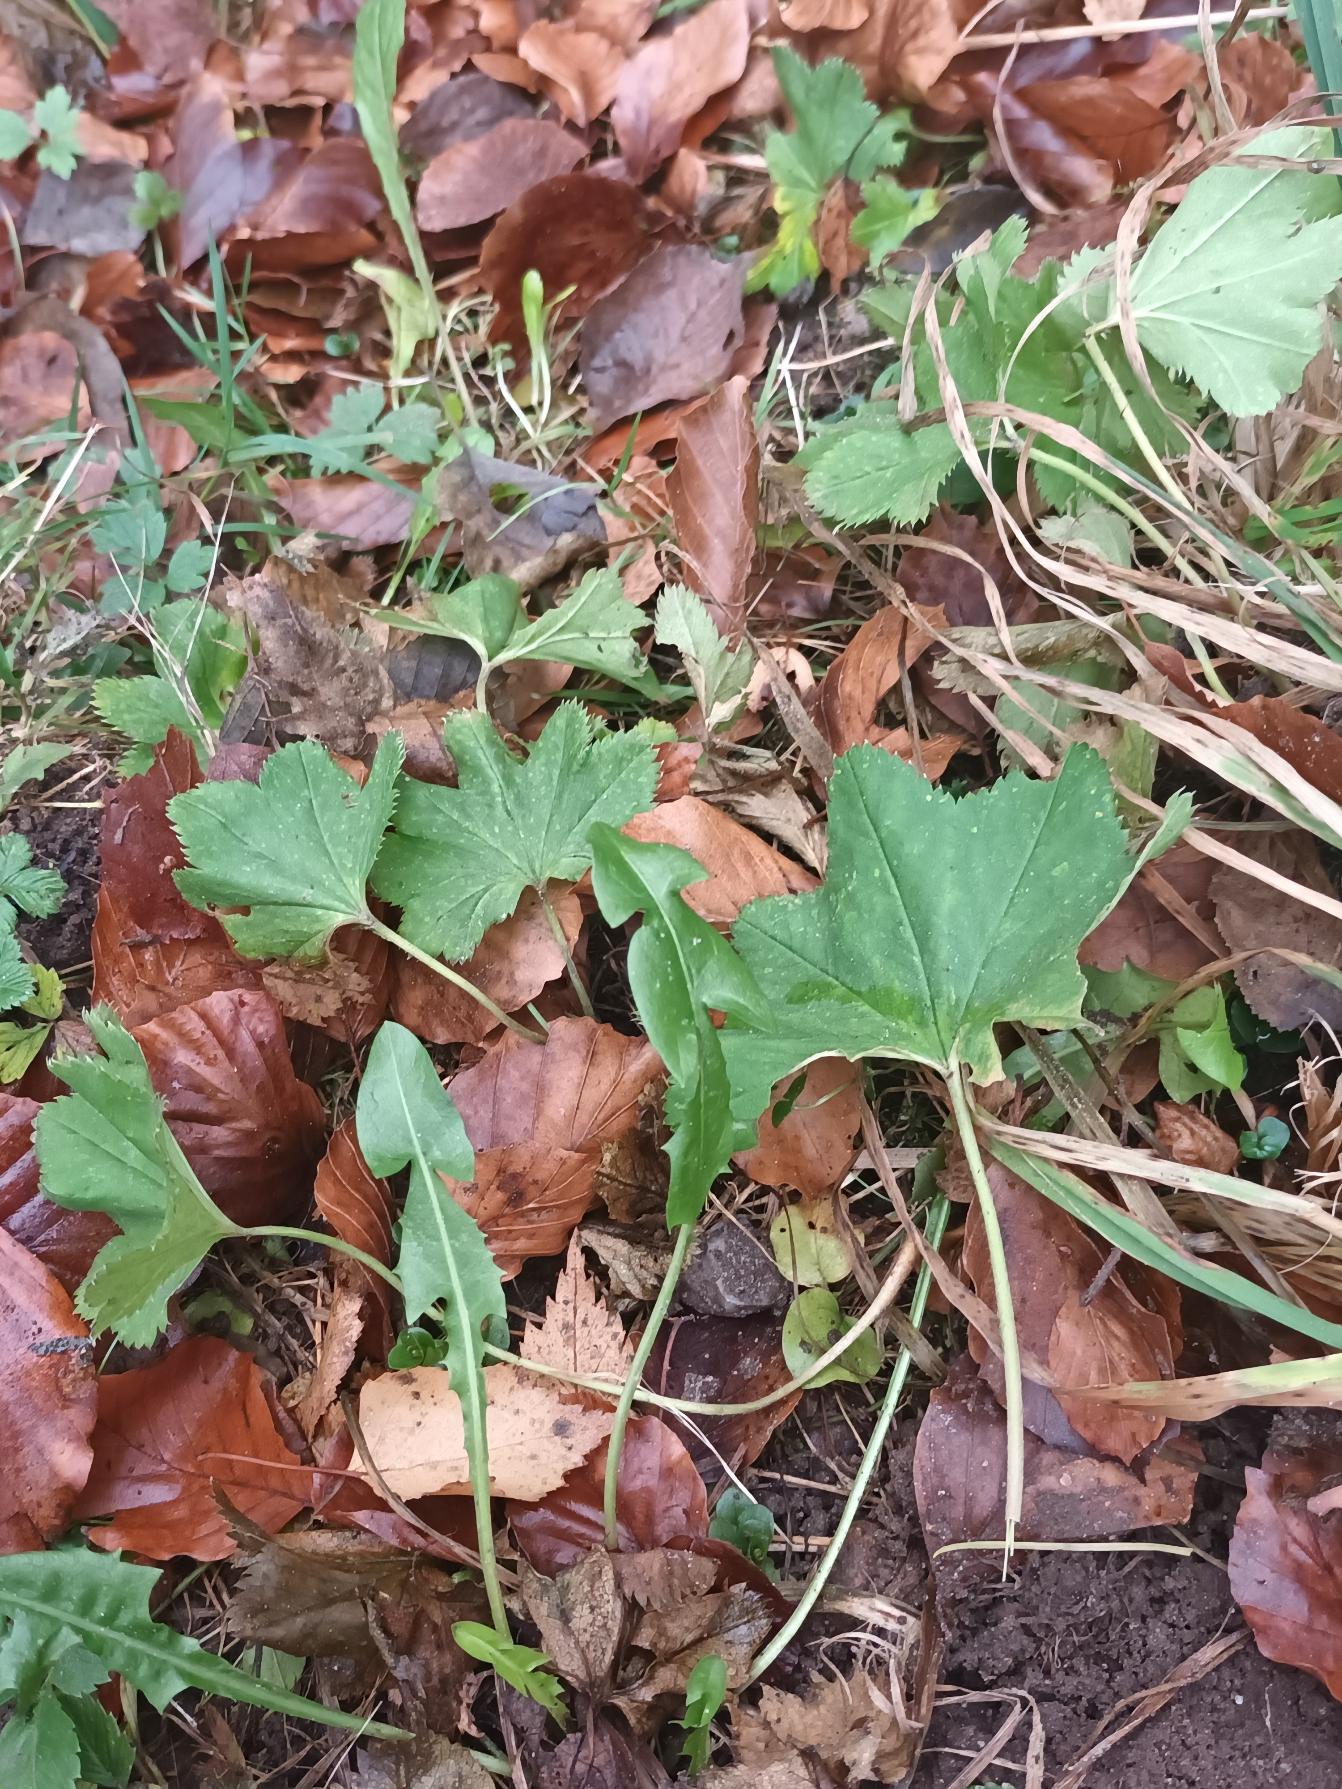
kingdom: Plantae
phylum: Tracheophyta
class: Magnoliopsida
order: Rosales
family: Rosaceae
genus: Alchemilla
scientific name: Alchemilla glabra
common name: Glat løvefod
